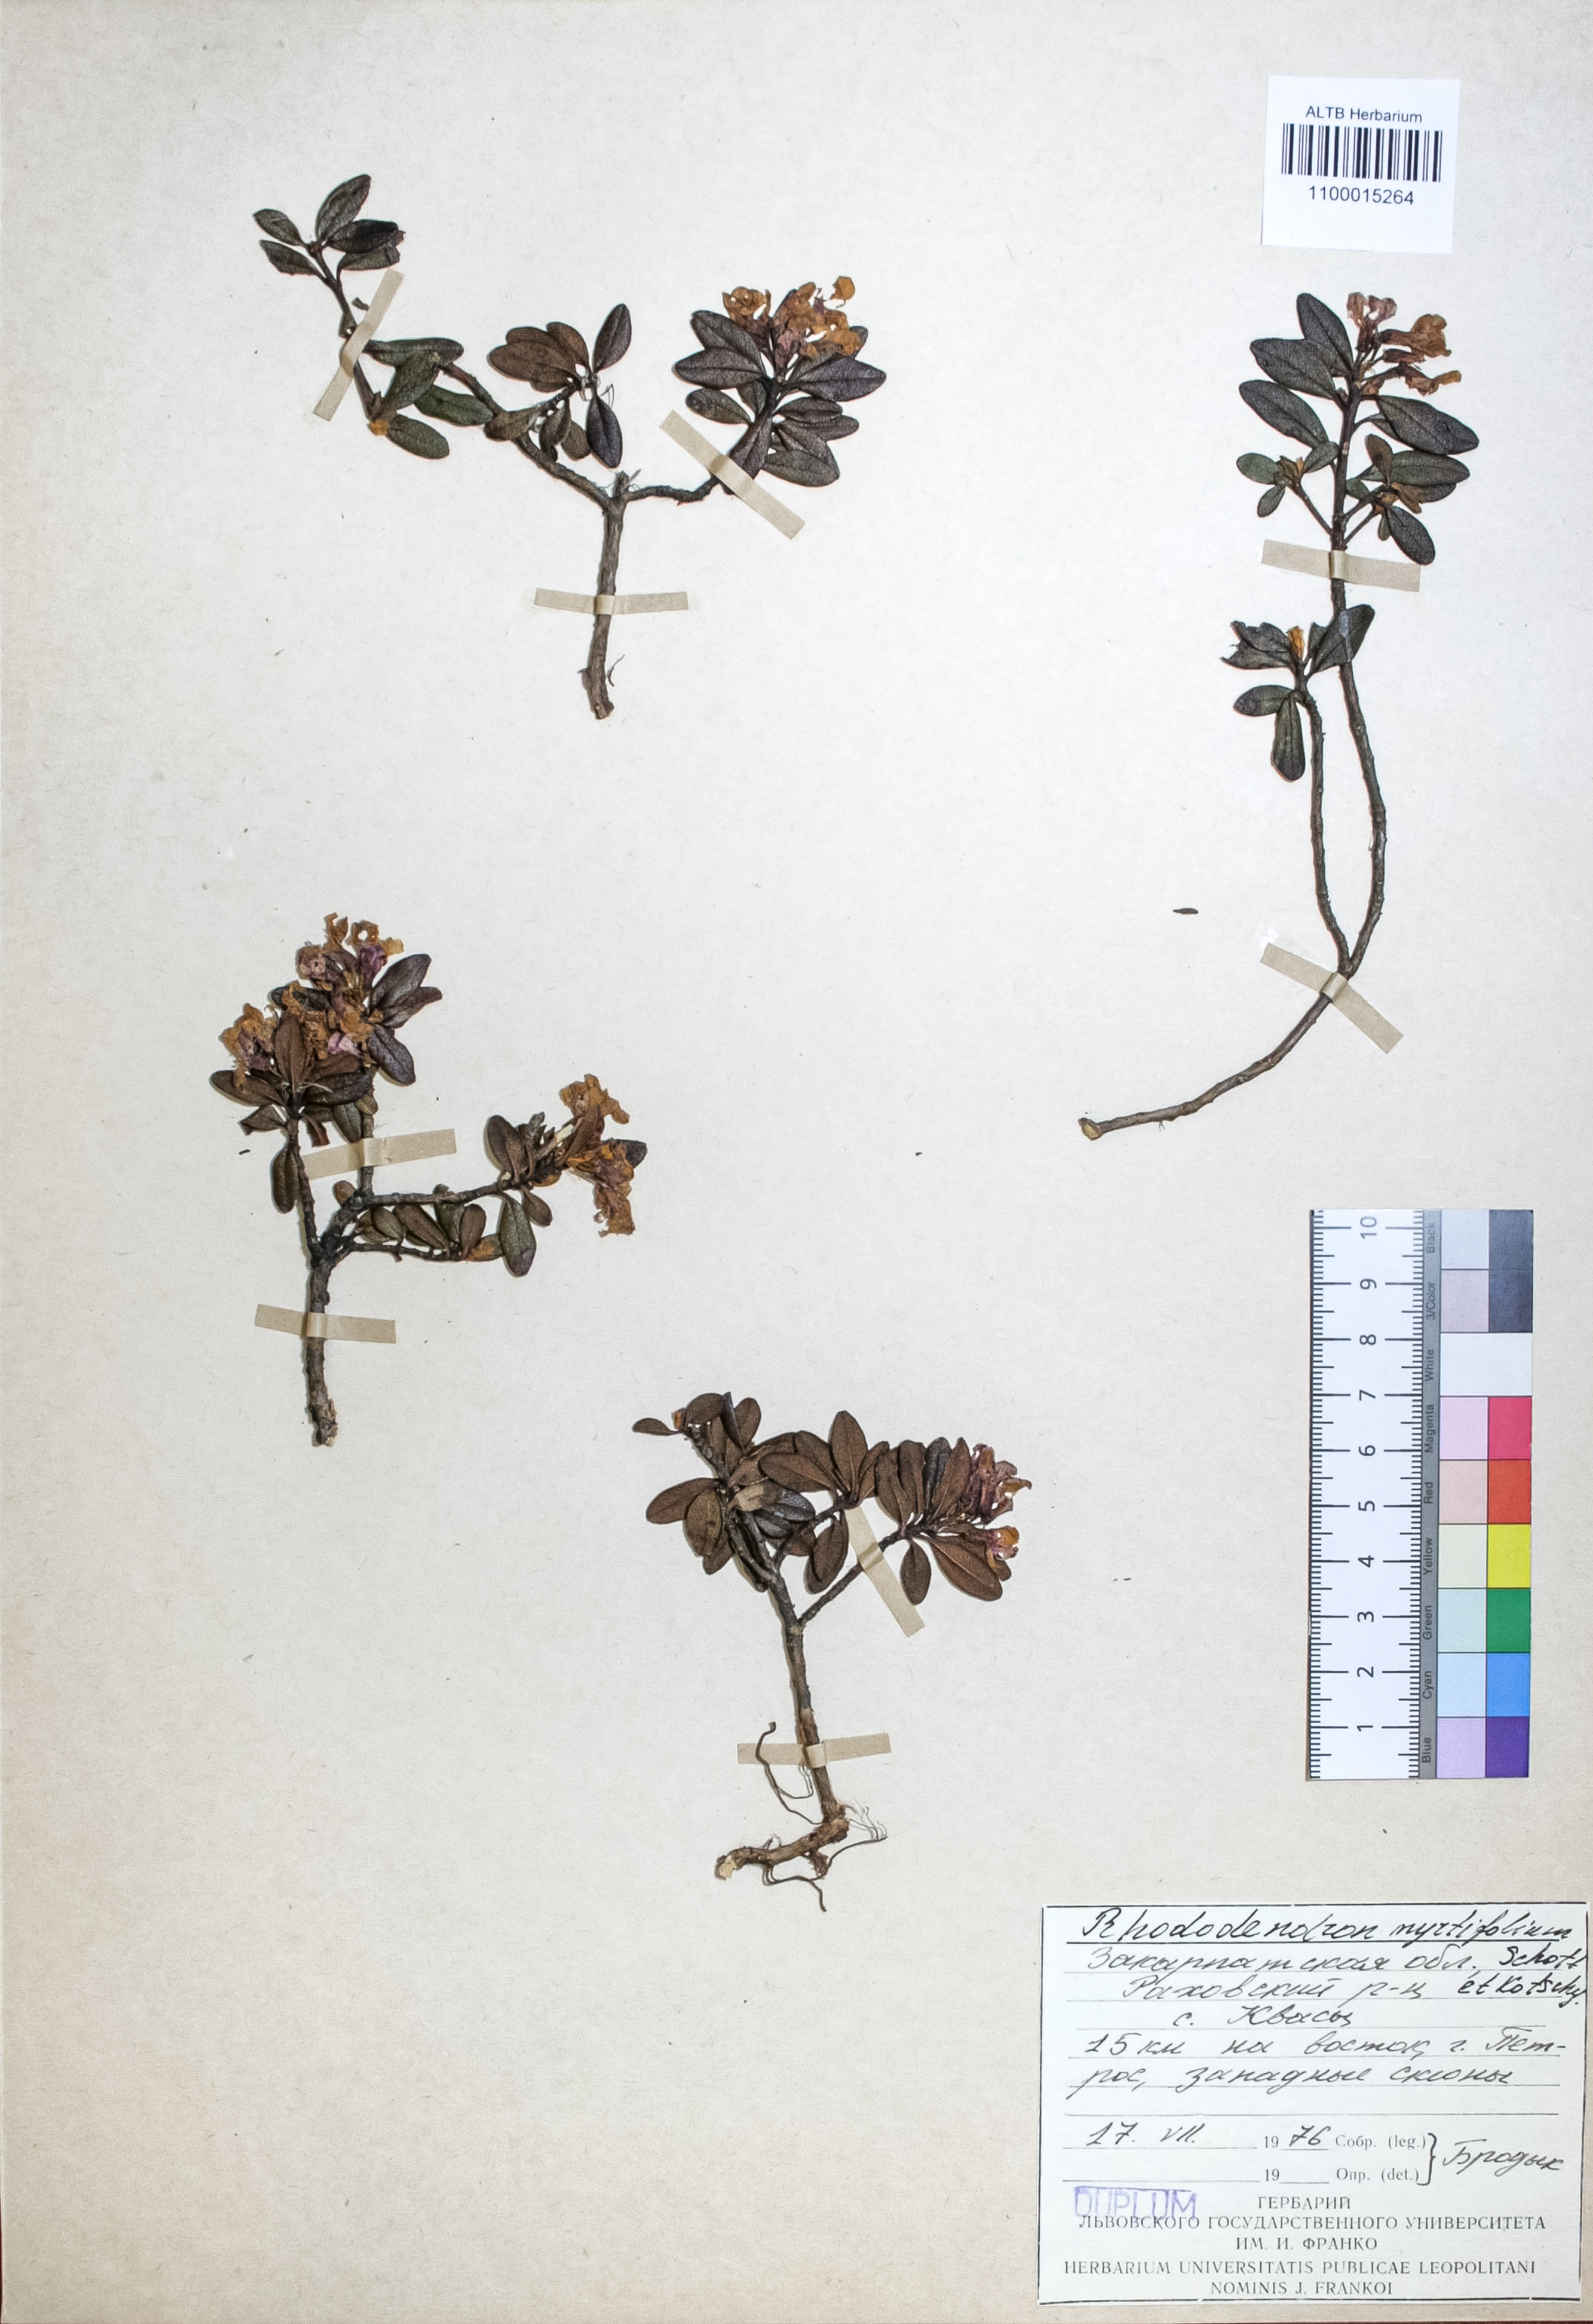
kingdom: Plantae
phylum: Tracheophyta
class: Magnoliopsida
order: Ericales
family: Ericaceae
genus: Rhododendron
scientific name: Rhododendron kotschyi
